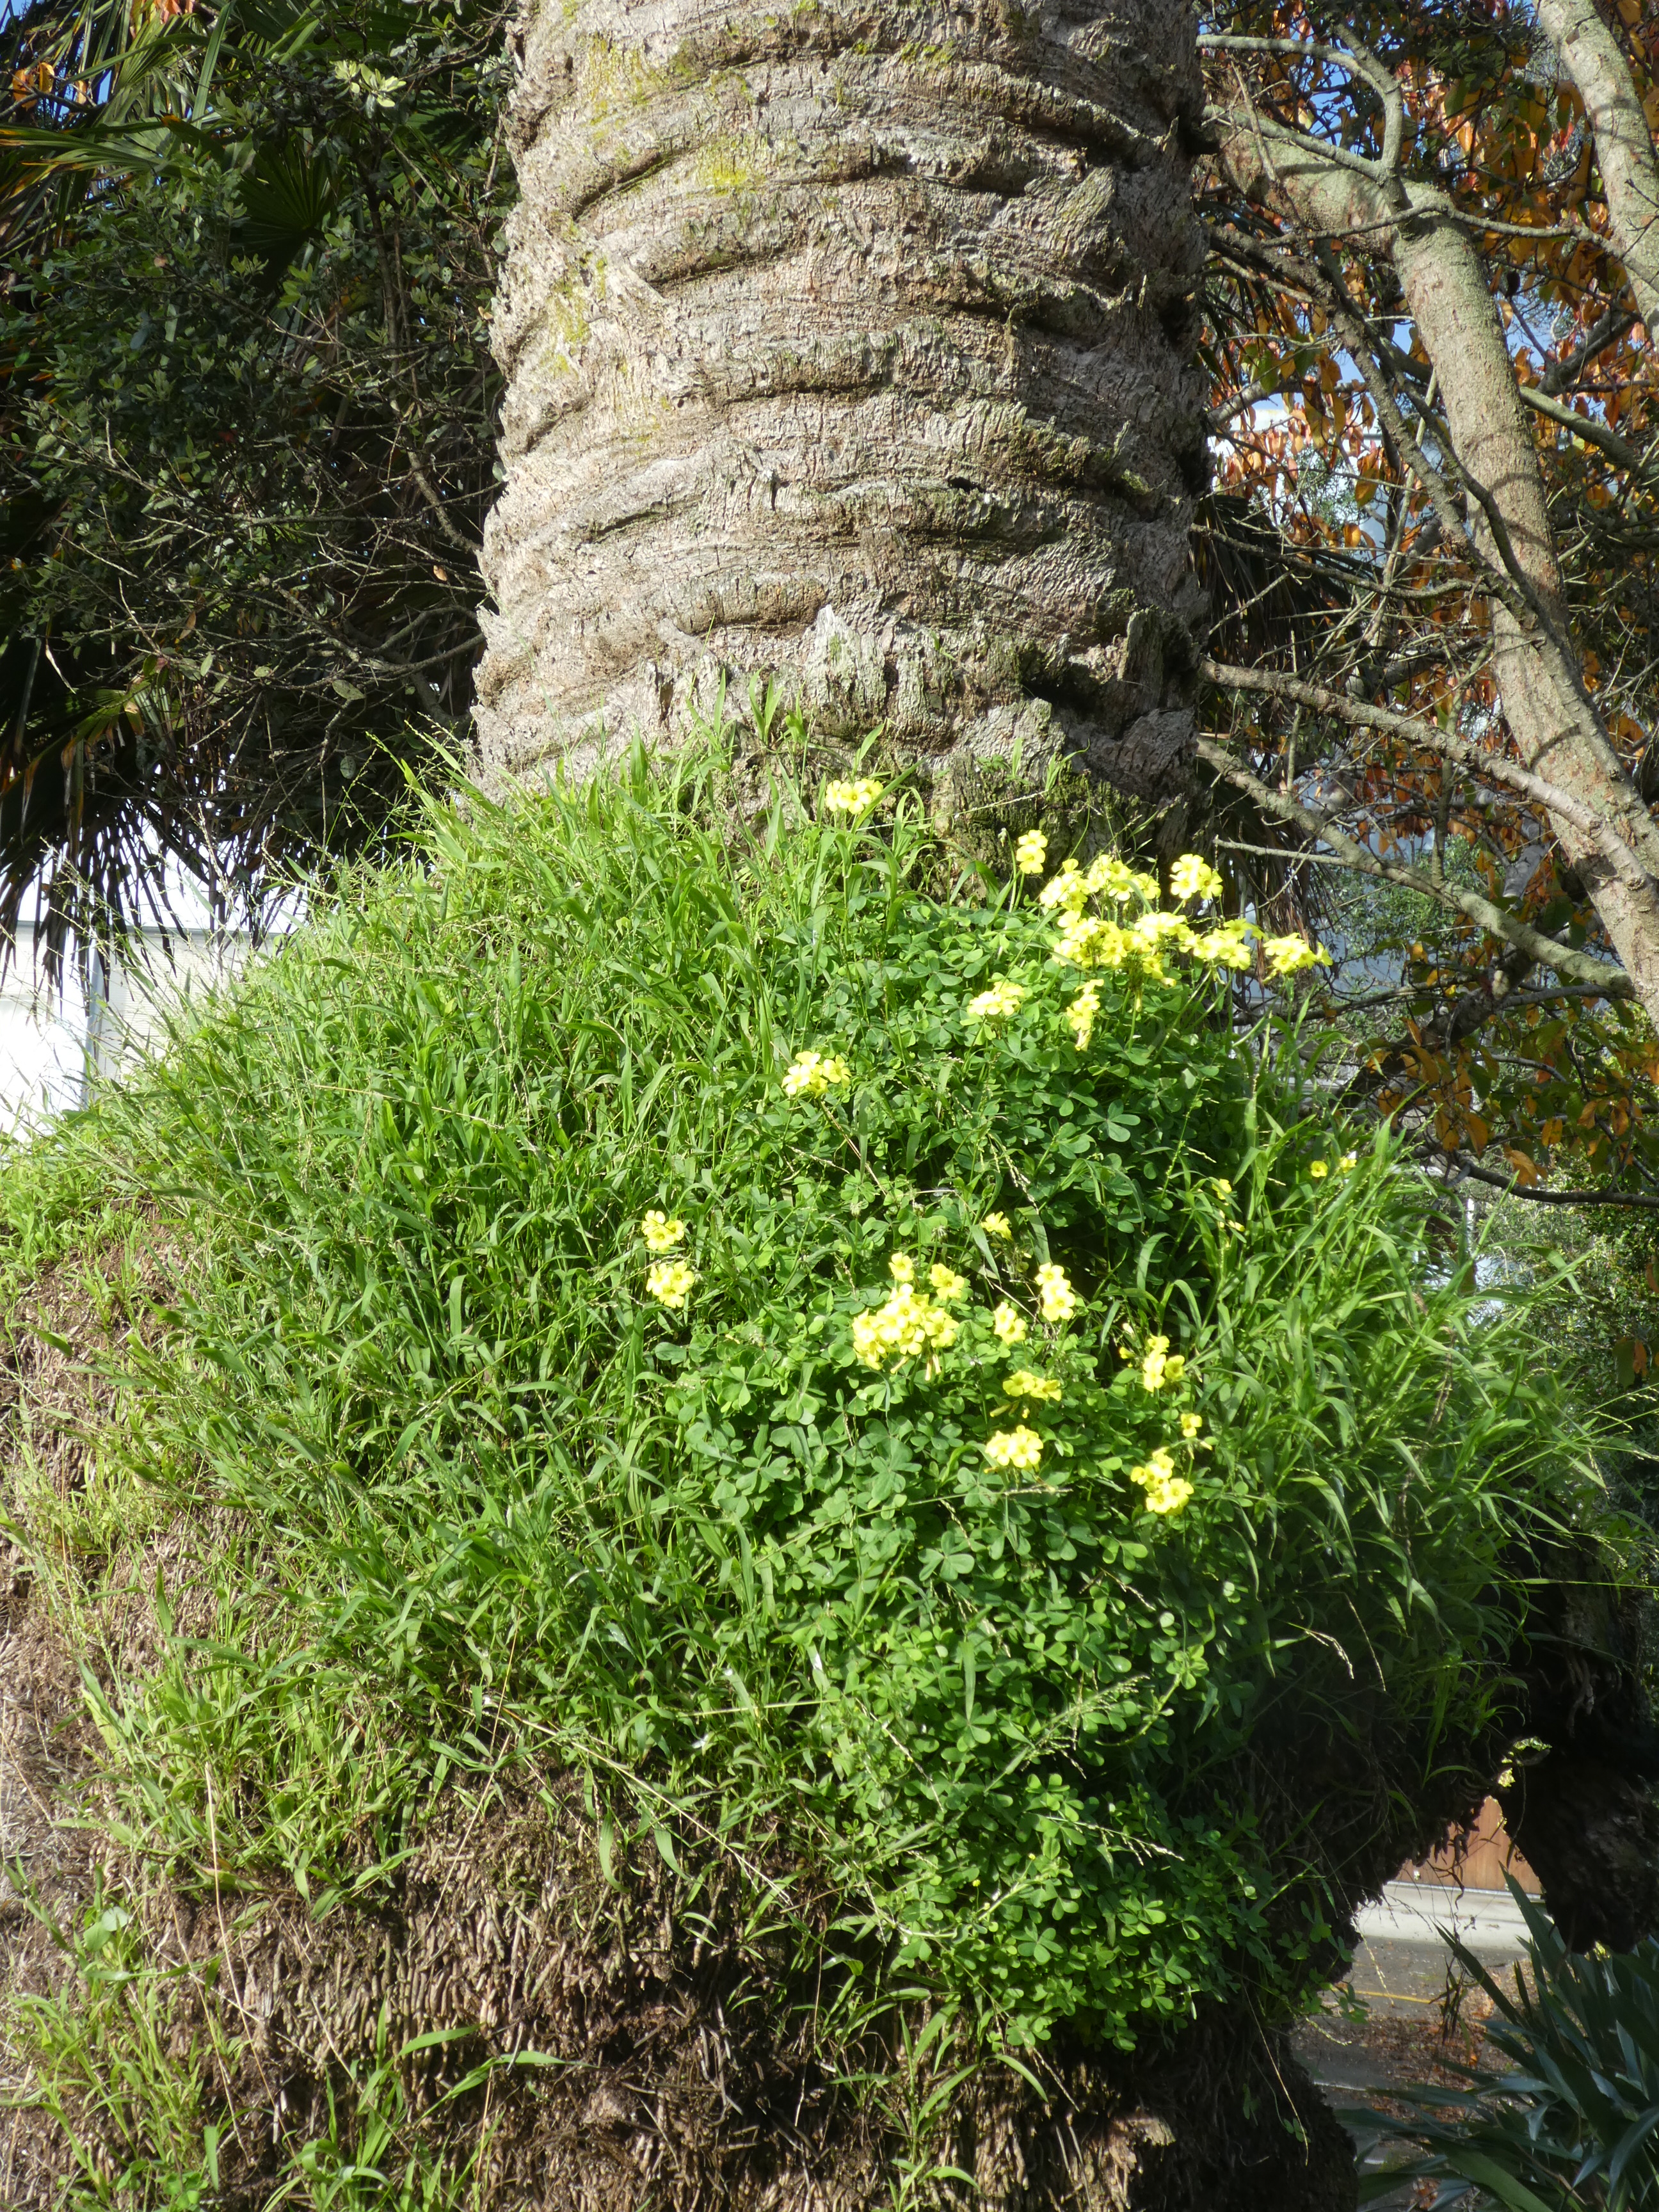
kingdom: Plantae
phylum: Tracheophyta
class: Liliopsida
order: Poales
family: Poaceae
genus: Ehrharta
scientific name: Ehrharta erecta
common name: Panic veldtgrass
